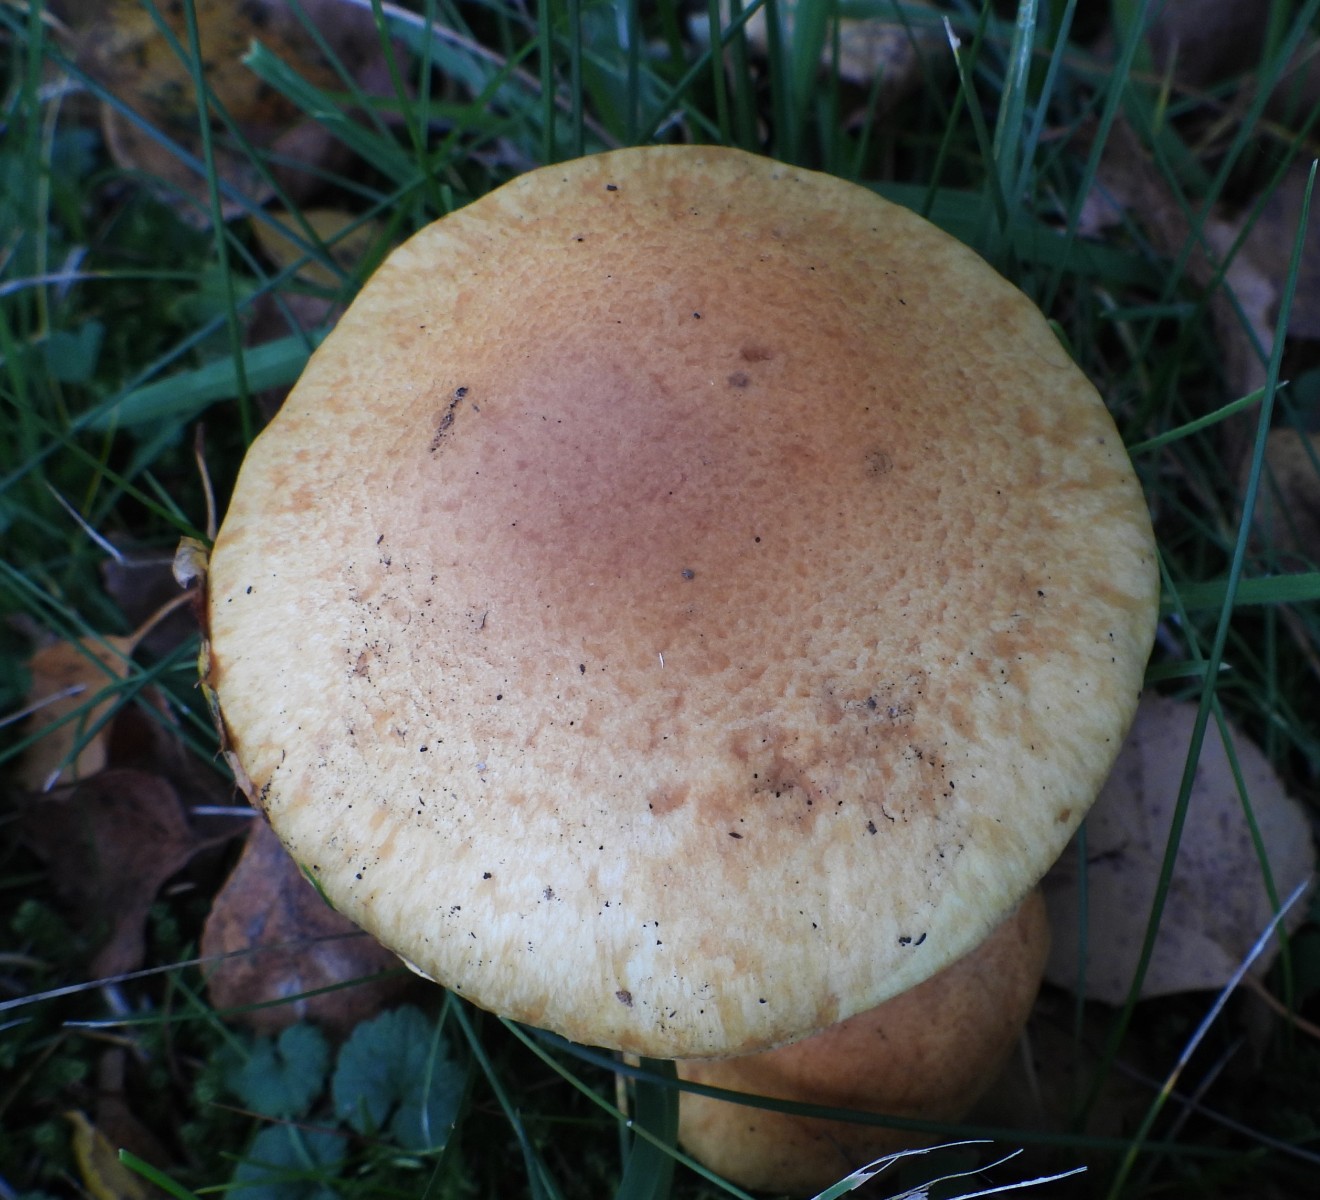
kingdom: Fungi
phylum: Basidiomycota
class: Agaricomycetes
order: Agaricales
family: Cortinariaceae
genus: Phlegmacium
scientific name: Phlegmacium triumphans
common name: gulbæltet slørhat
